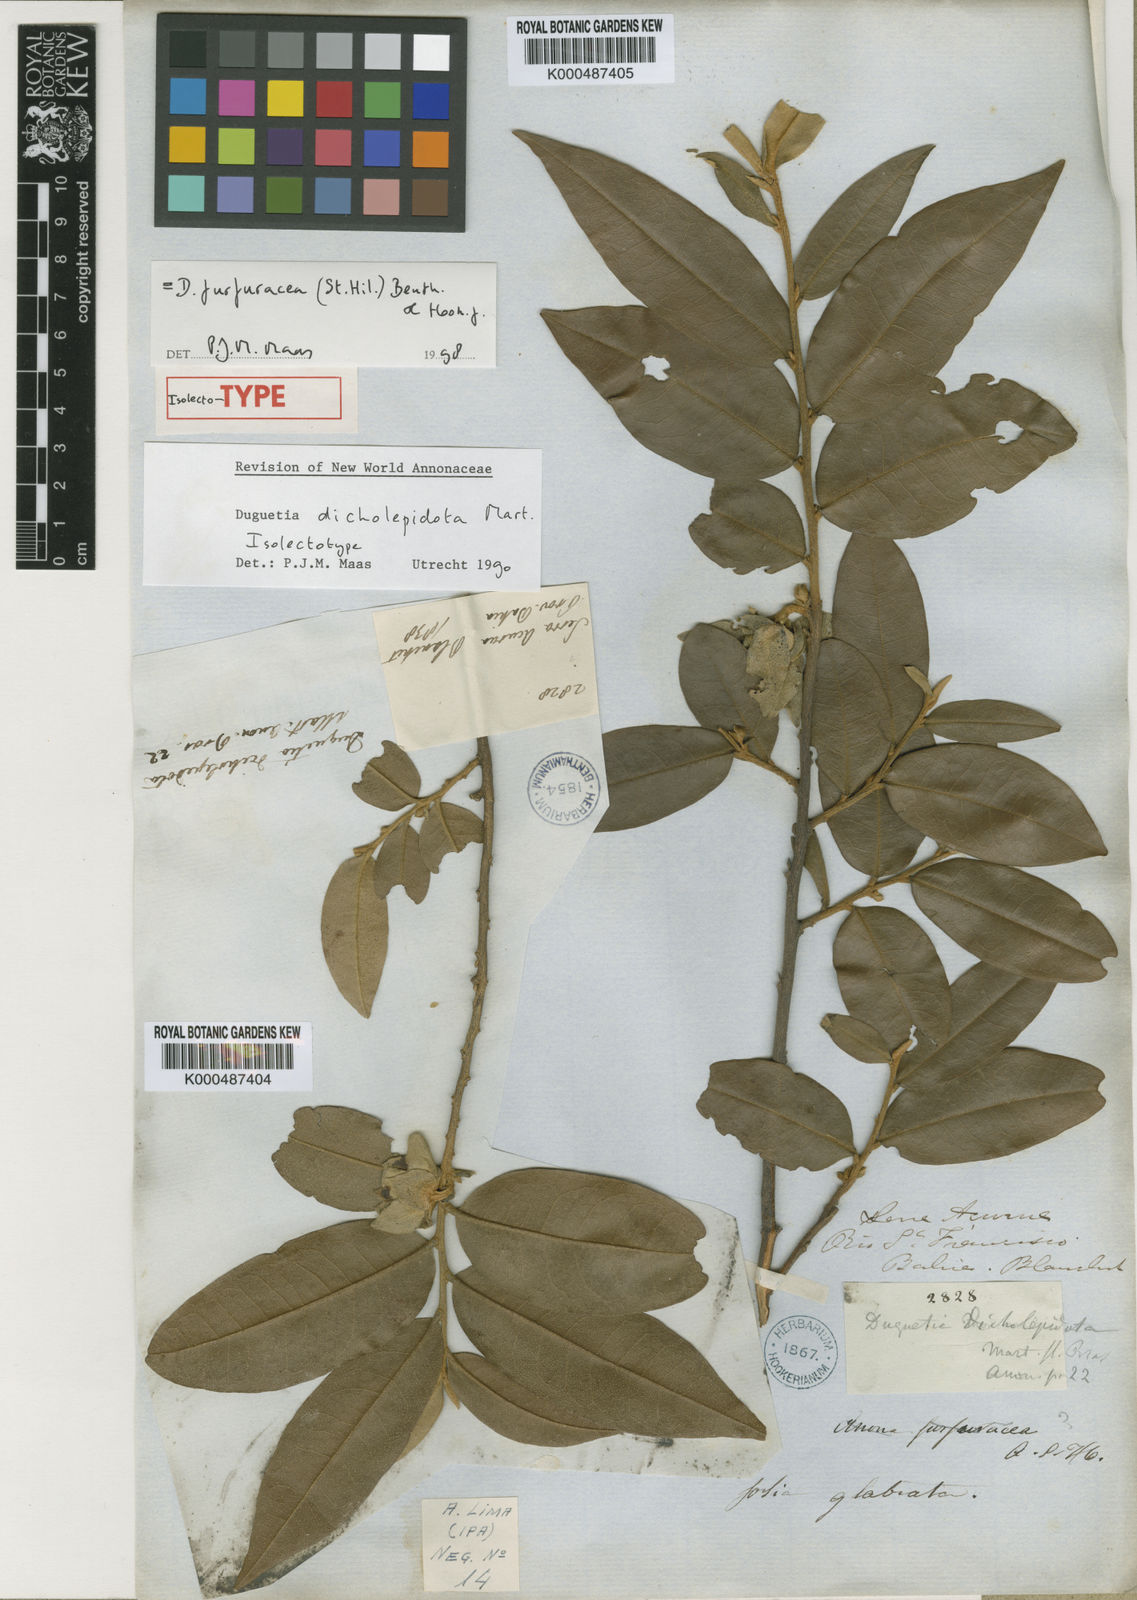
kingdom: Plantae
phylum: Tracheophyta
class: Magnoliopsida
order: Magnoliales
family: Annonaceae
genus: Duguetia
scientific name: Duguetia dicholepidota
